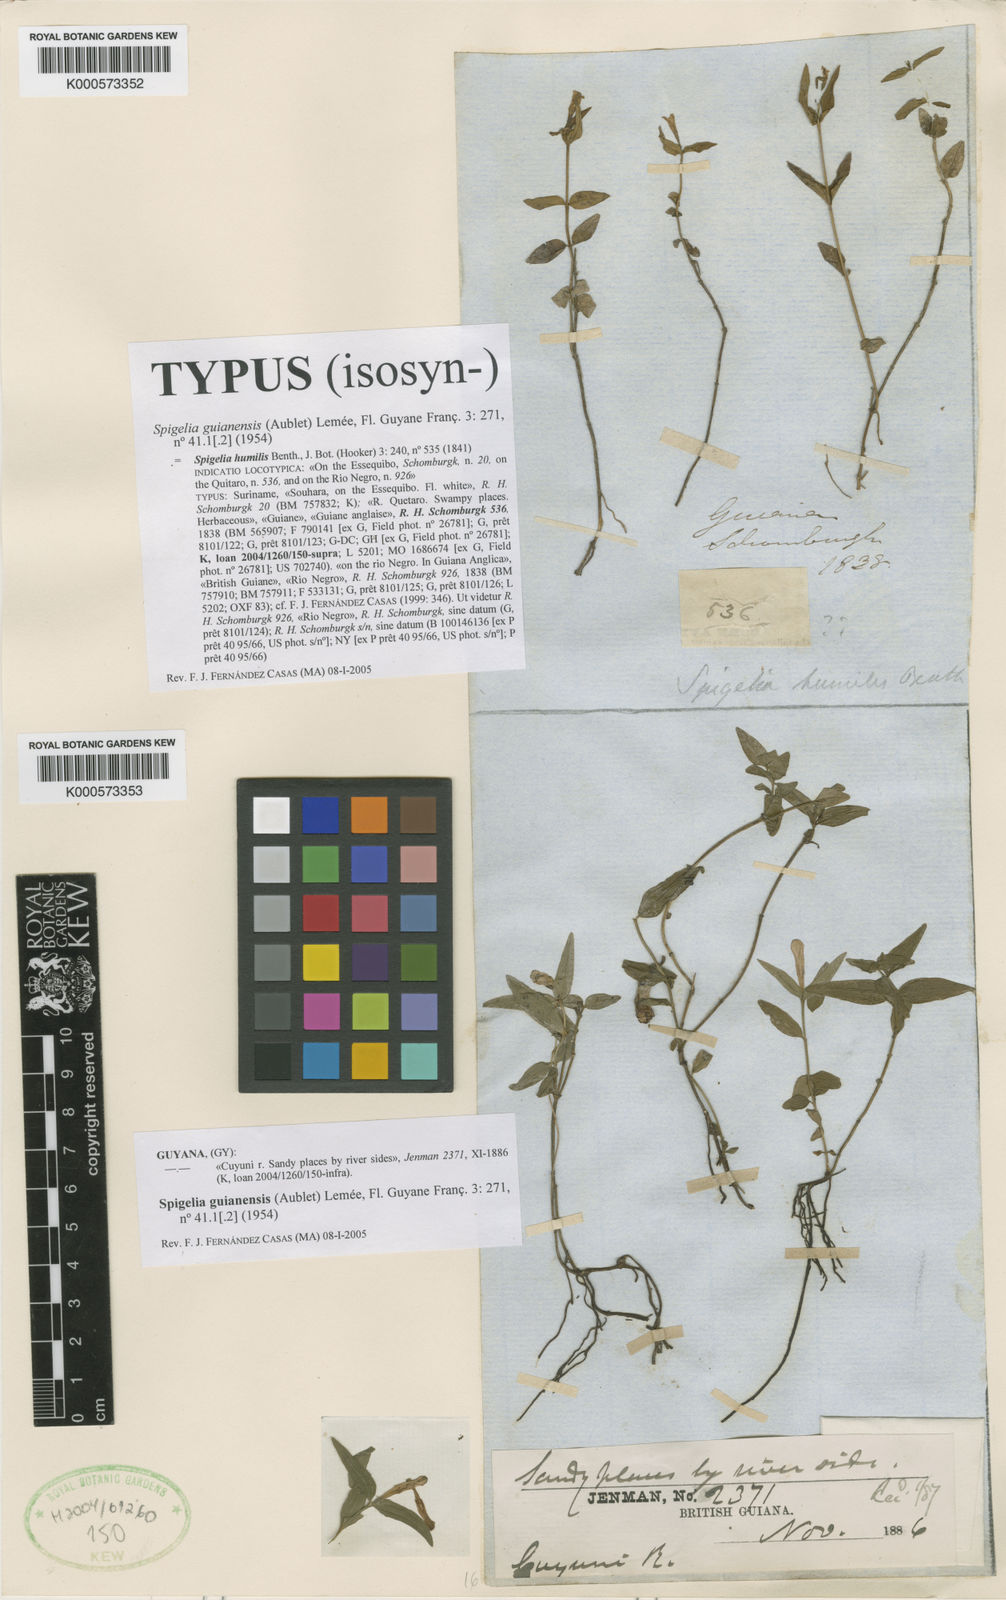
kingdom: Plantae
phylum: Tracheophyta
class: Magnoliopsida
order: Gentianales
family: Loganiaceae
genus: Spigelia
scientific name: Spigelia
